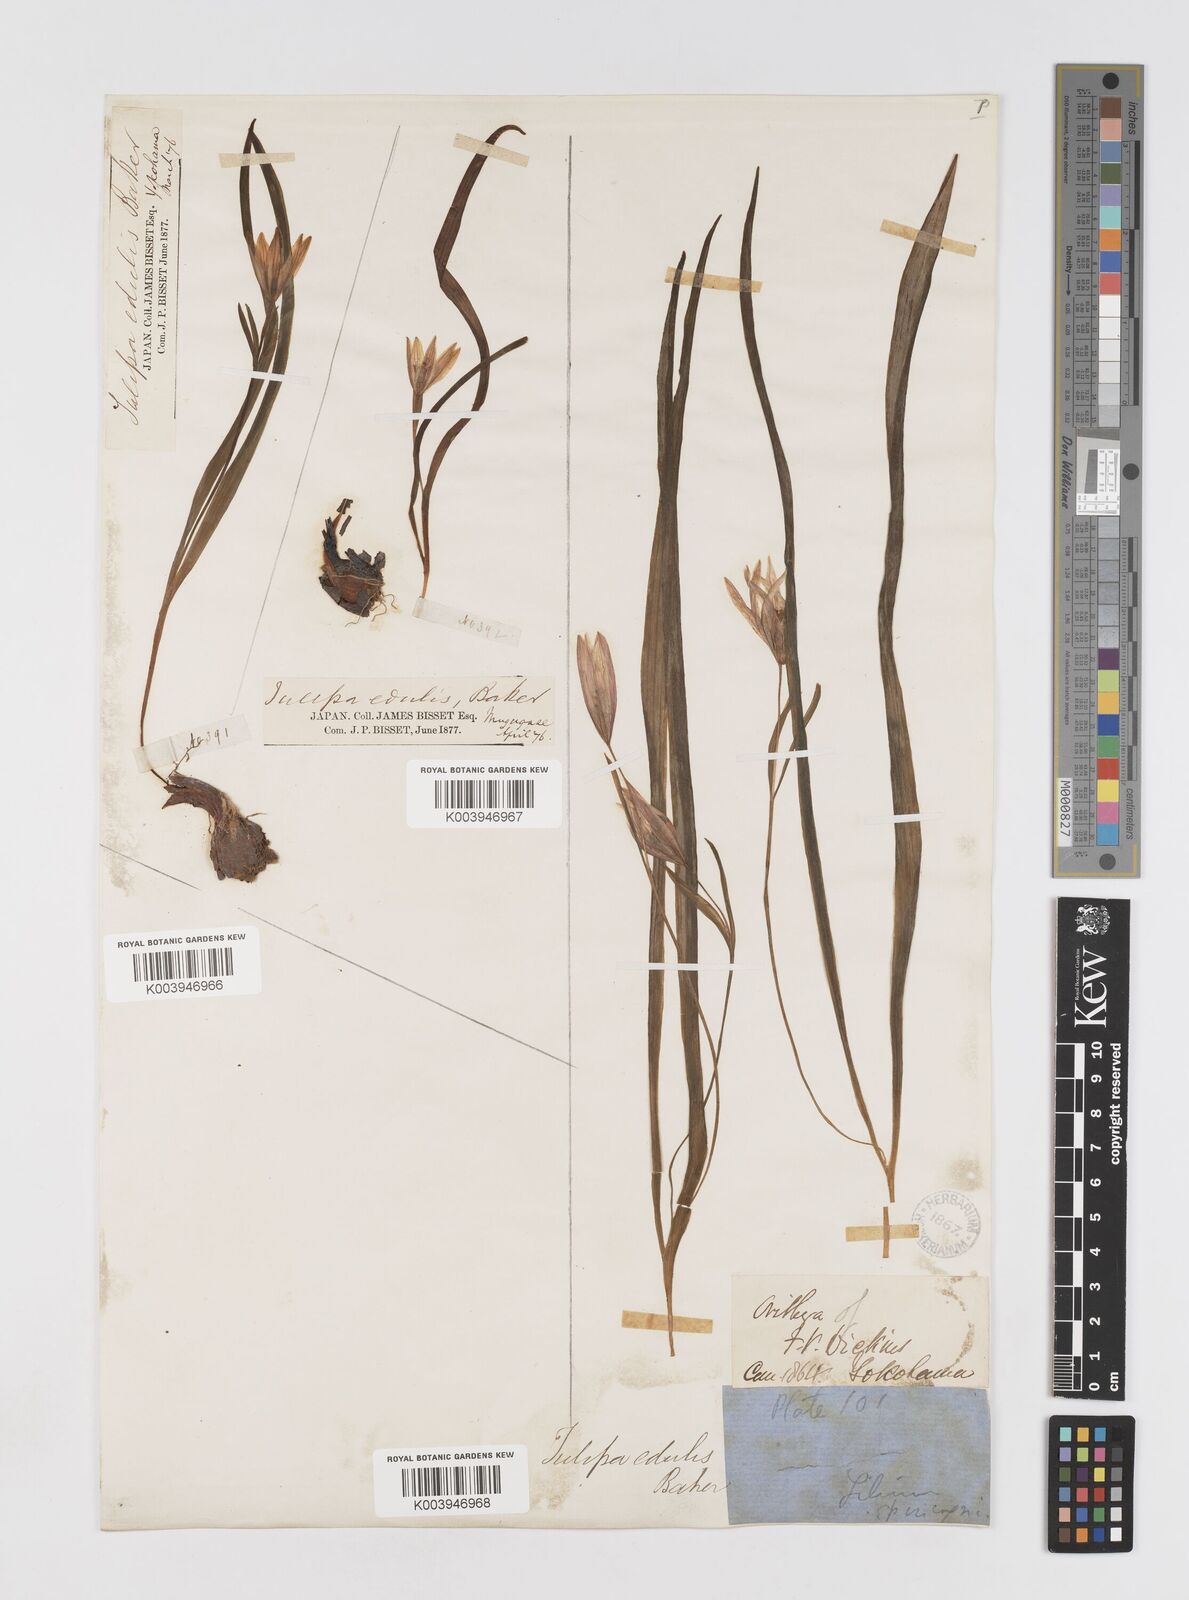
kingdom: Plantae
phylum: Tracheophyta
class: Liliopsida
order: Liliales
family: Liliaceae
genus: Amana
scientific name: Amana edulis
